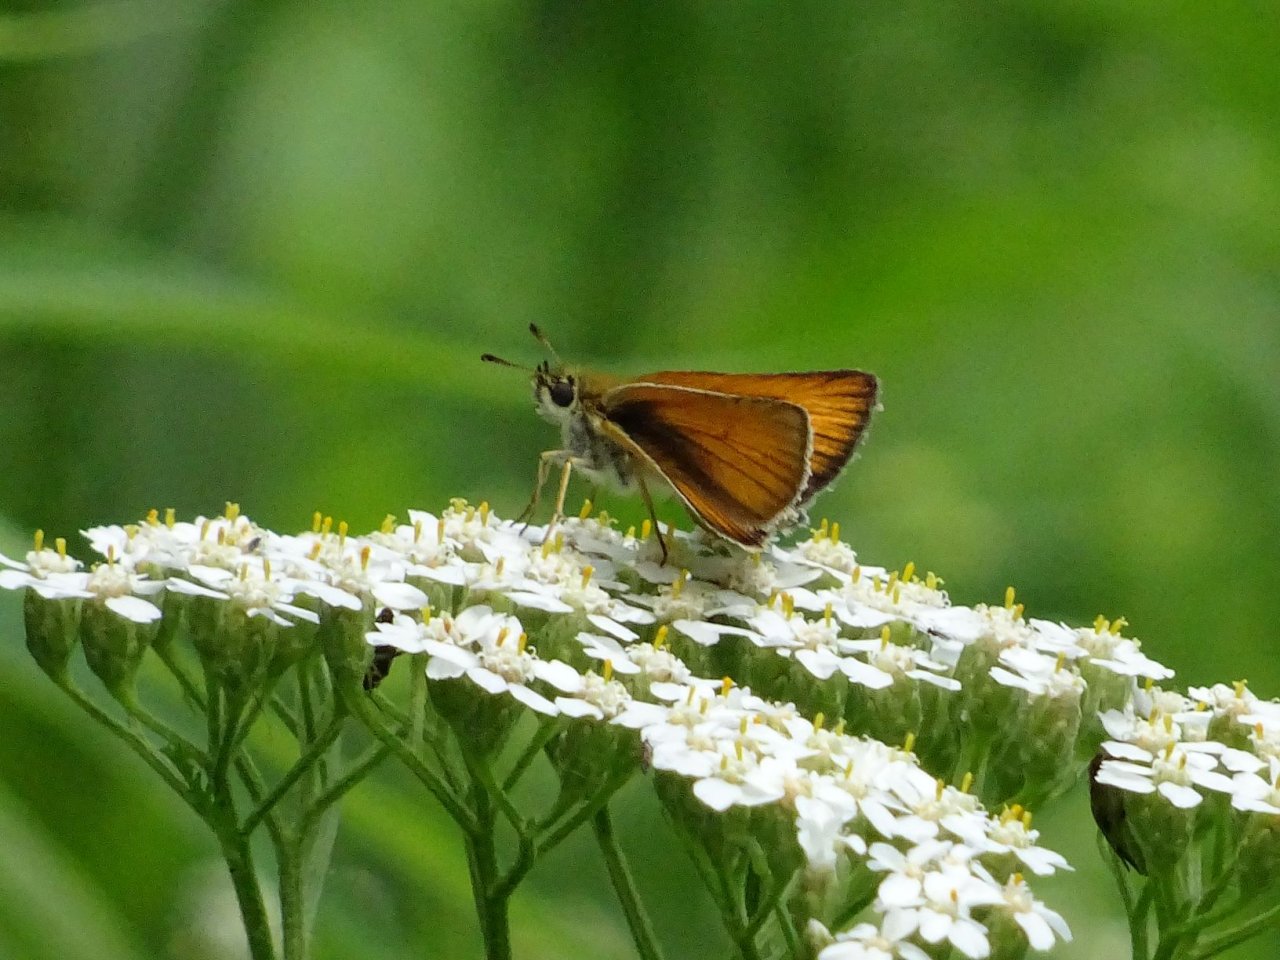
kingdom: Animalia
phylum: Arthropoda
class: Insecta
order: Lepidoptera
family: Hesperiidae
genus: Thymelicus
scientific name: Thymelicus lineola
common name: European Skipper
